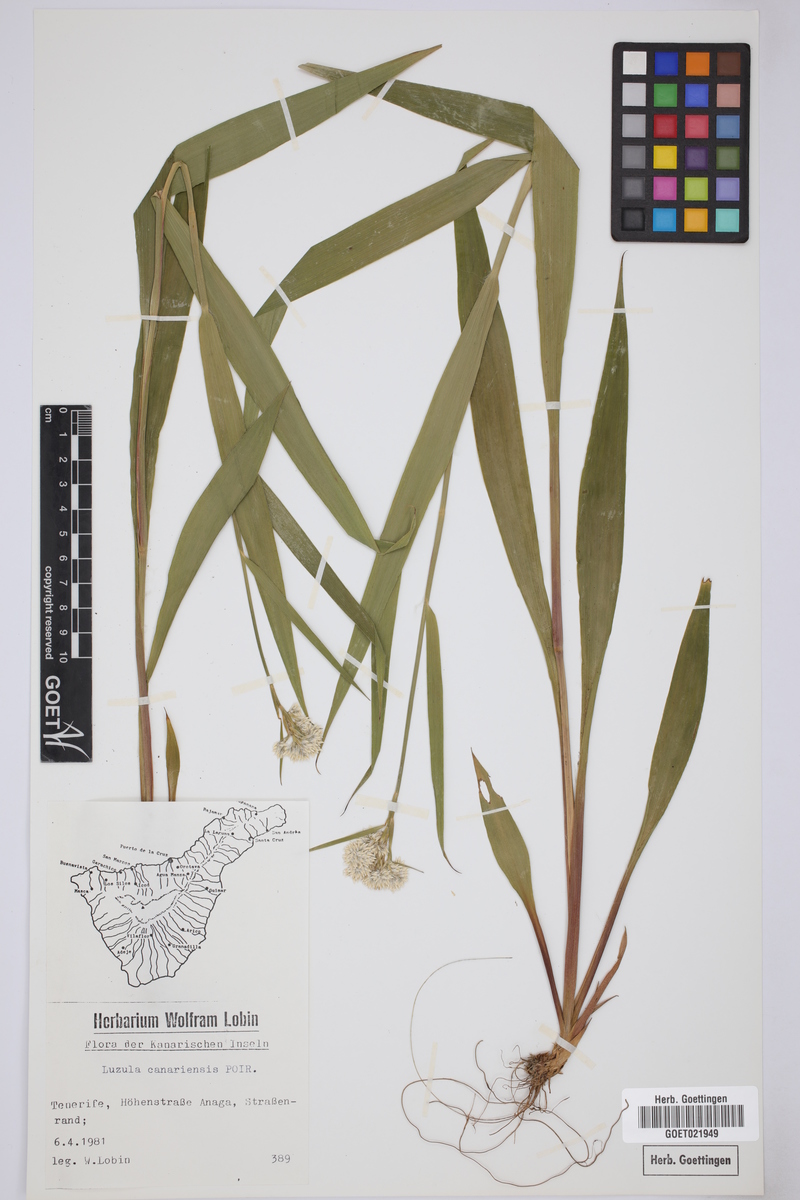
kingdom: Plantae
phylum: Tracheophyta
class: Liliopsida
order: Poales
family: Juncaceae
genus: Luzula
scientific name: Luzula canariensis
